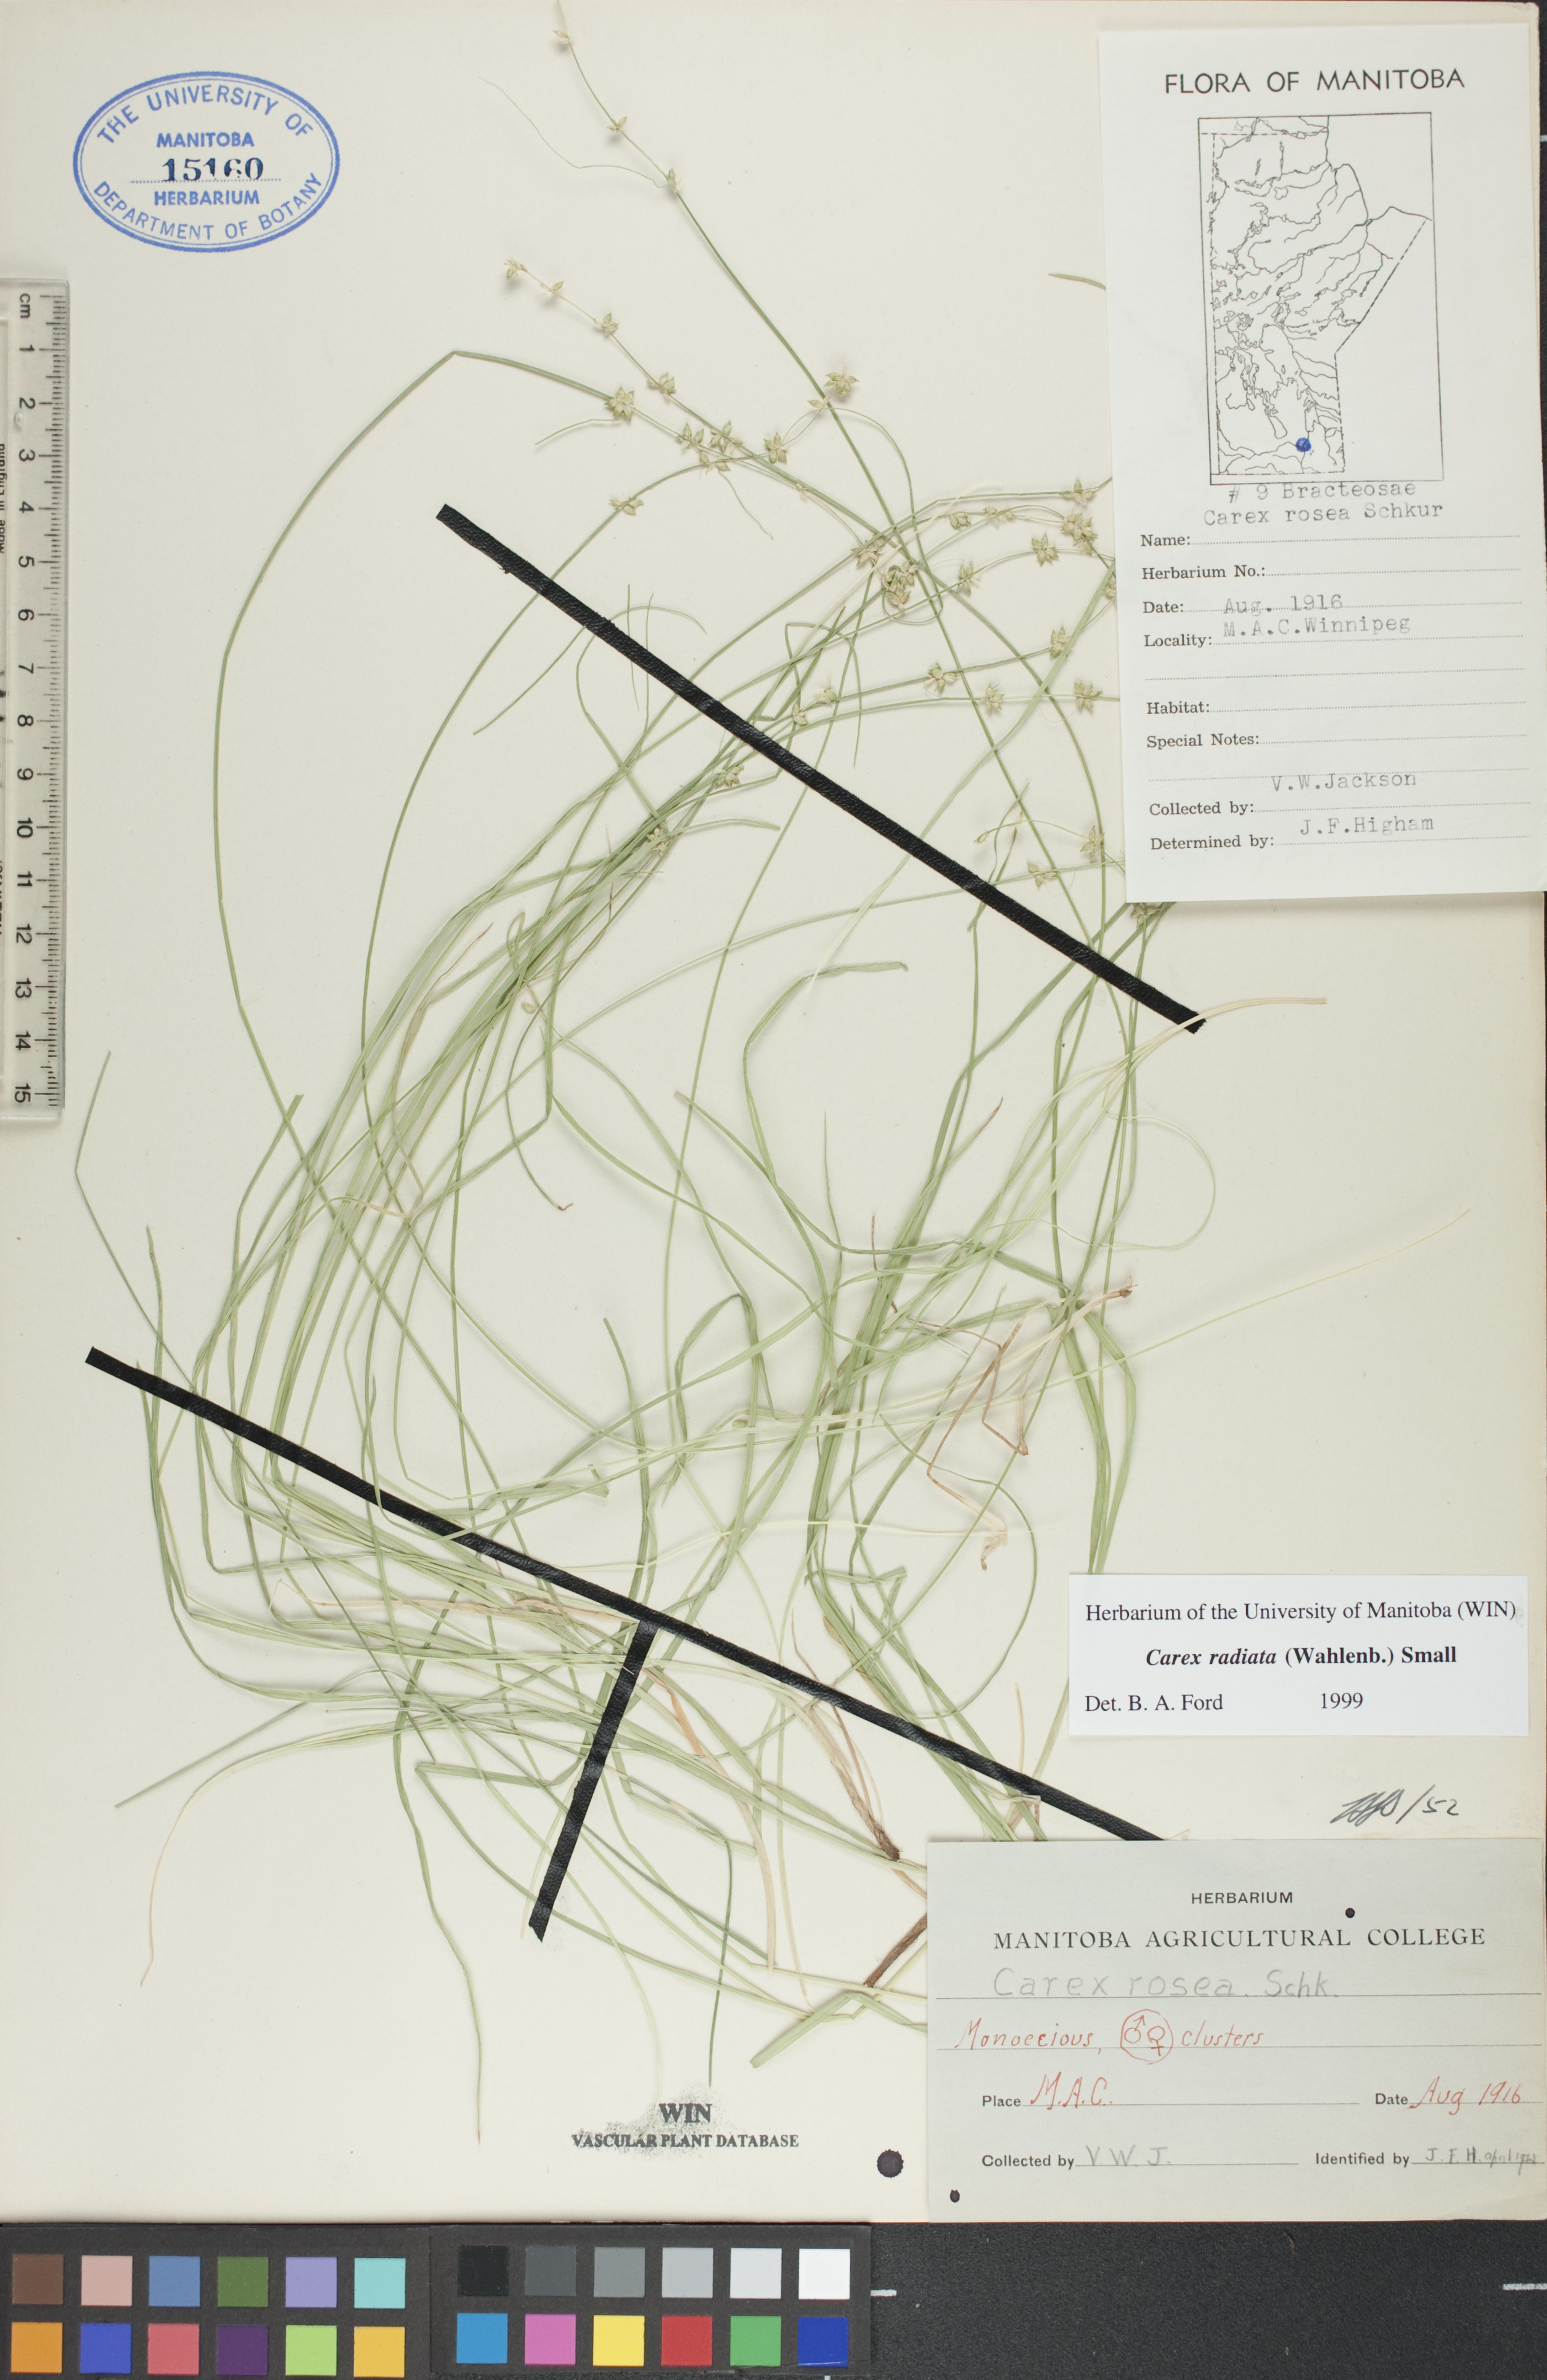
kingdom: Plantae
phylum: Tracheophyta
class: Liliopsida
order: Poales
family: Cyperaceae
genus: Carex
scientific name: Carex radiata
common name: Eastern star sedge
